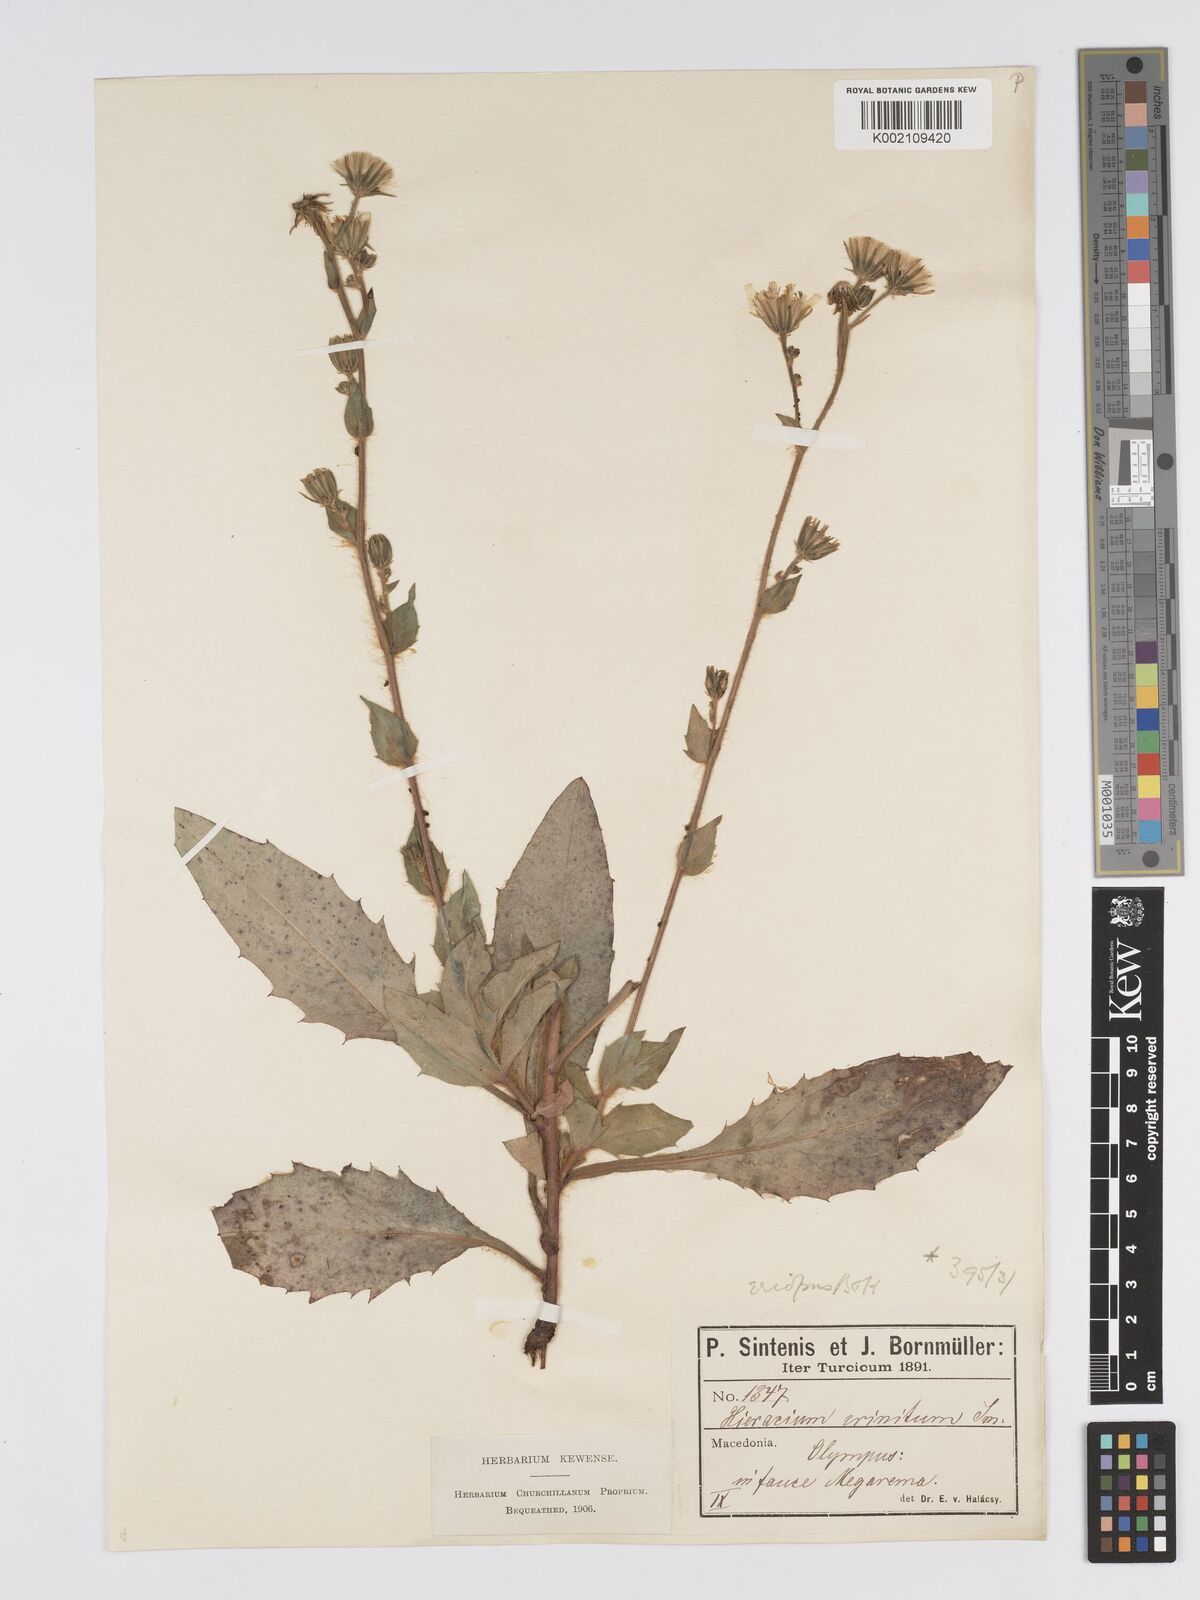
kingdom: Plantae
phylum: Tracheophyta
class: Magnoliopsida
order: Asterales
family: Asteraceae
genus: Hieracium
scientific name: Hieracium racemosum
